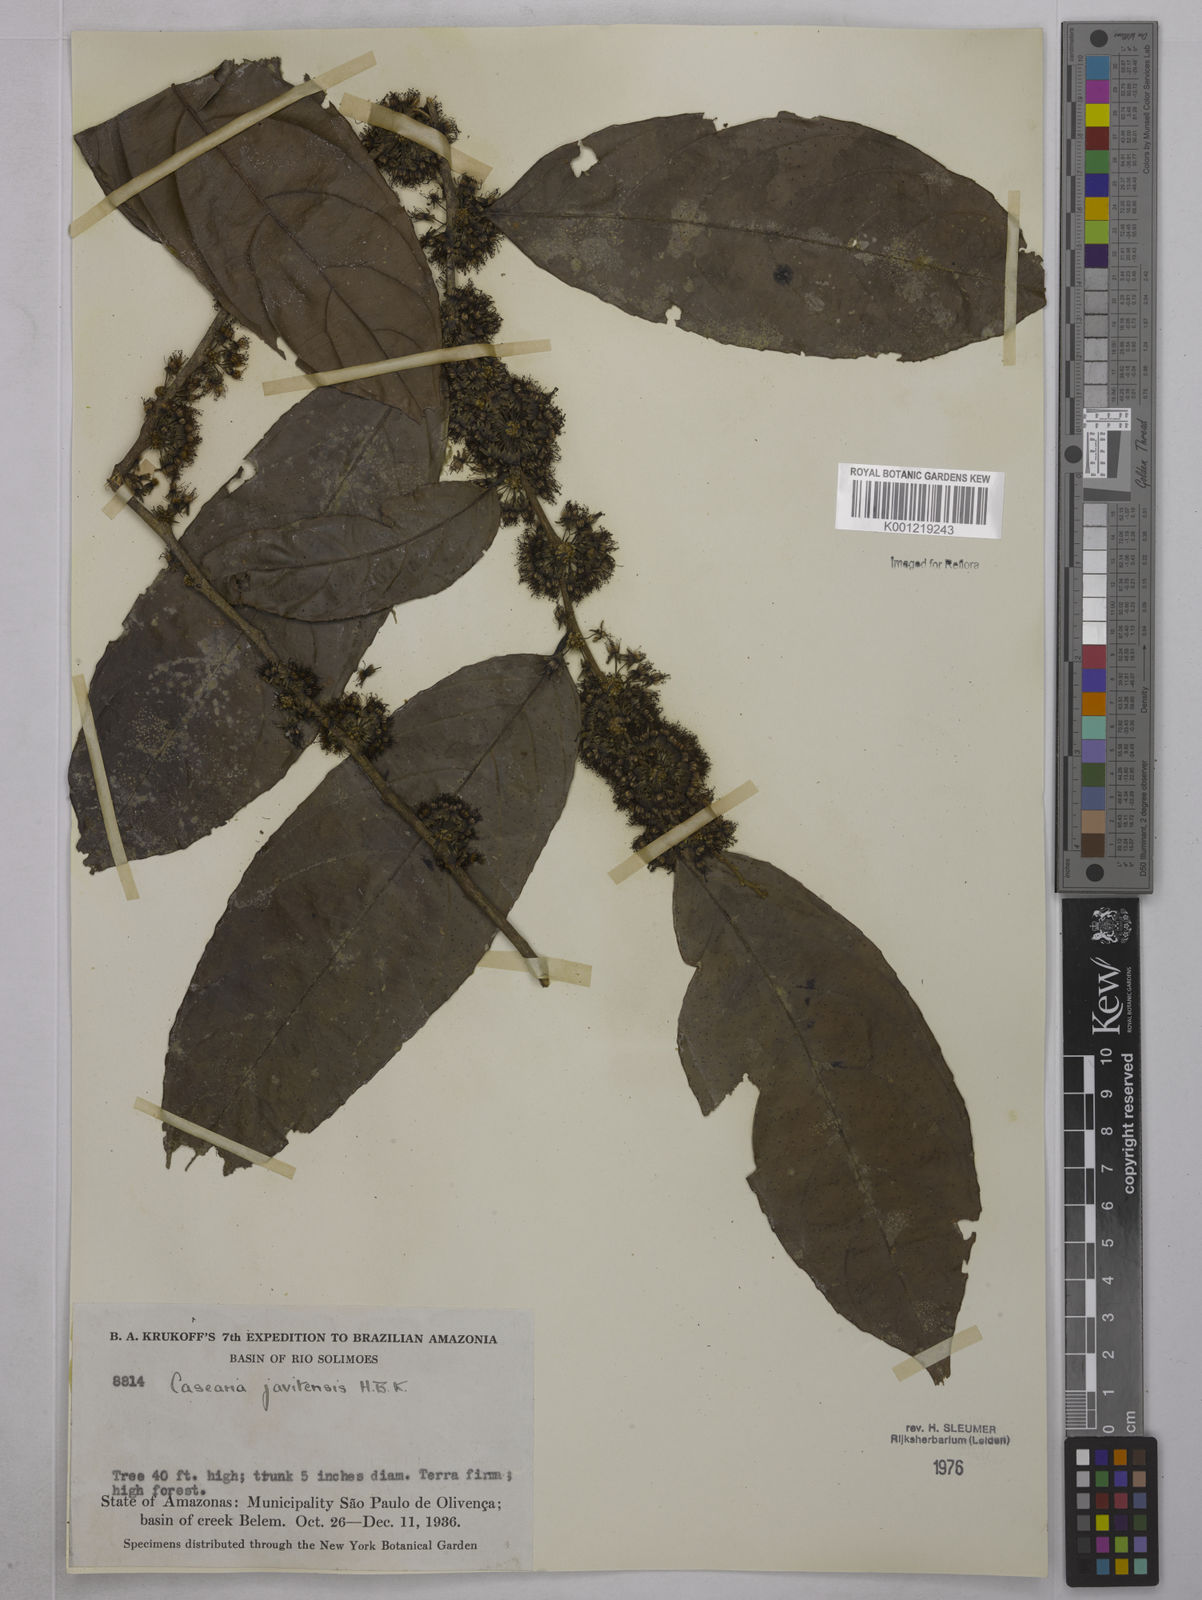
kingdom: Plantae
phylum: Tracheophyta
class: Magnoliopsida
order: Malpighiales
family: Salicaceae
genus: Piparea
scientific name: Piparea multiflora
